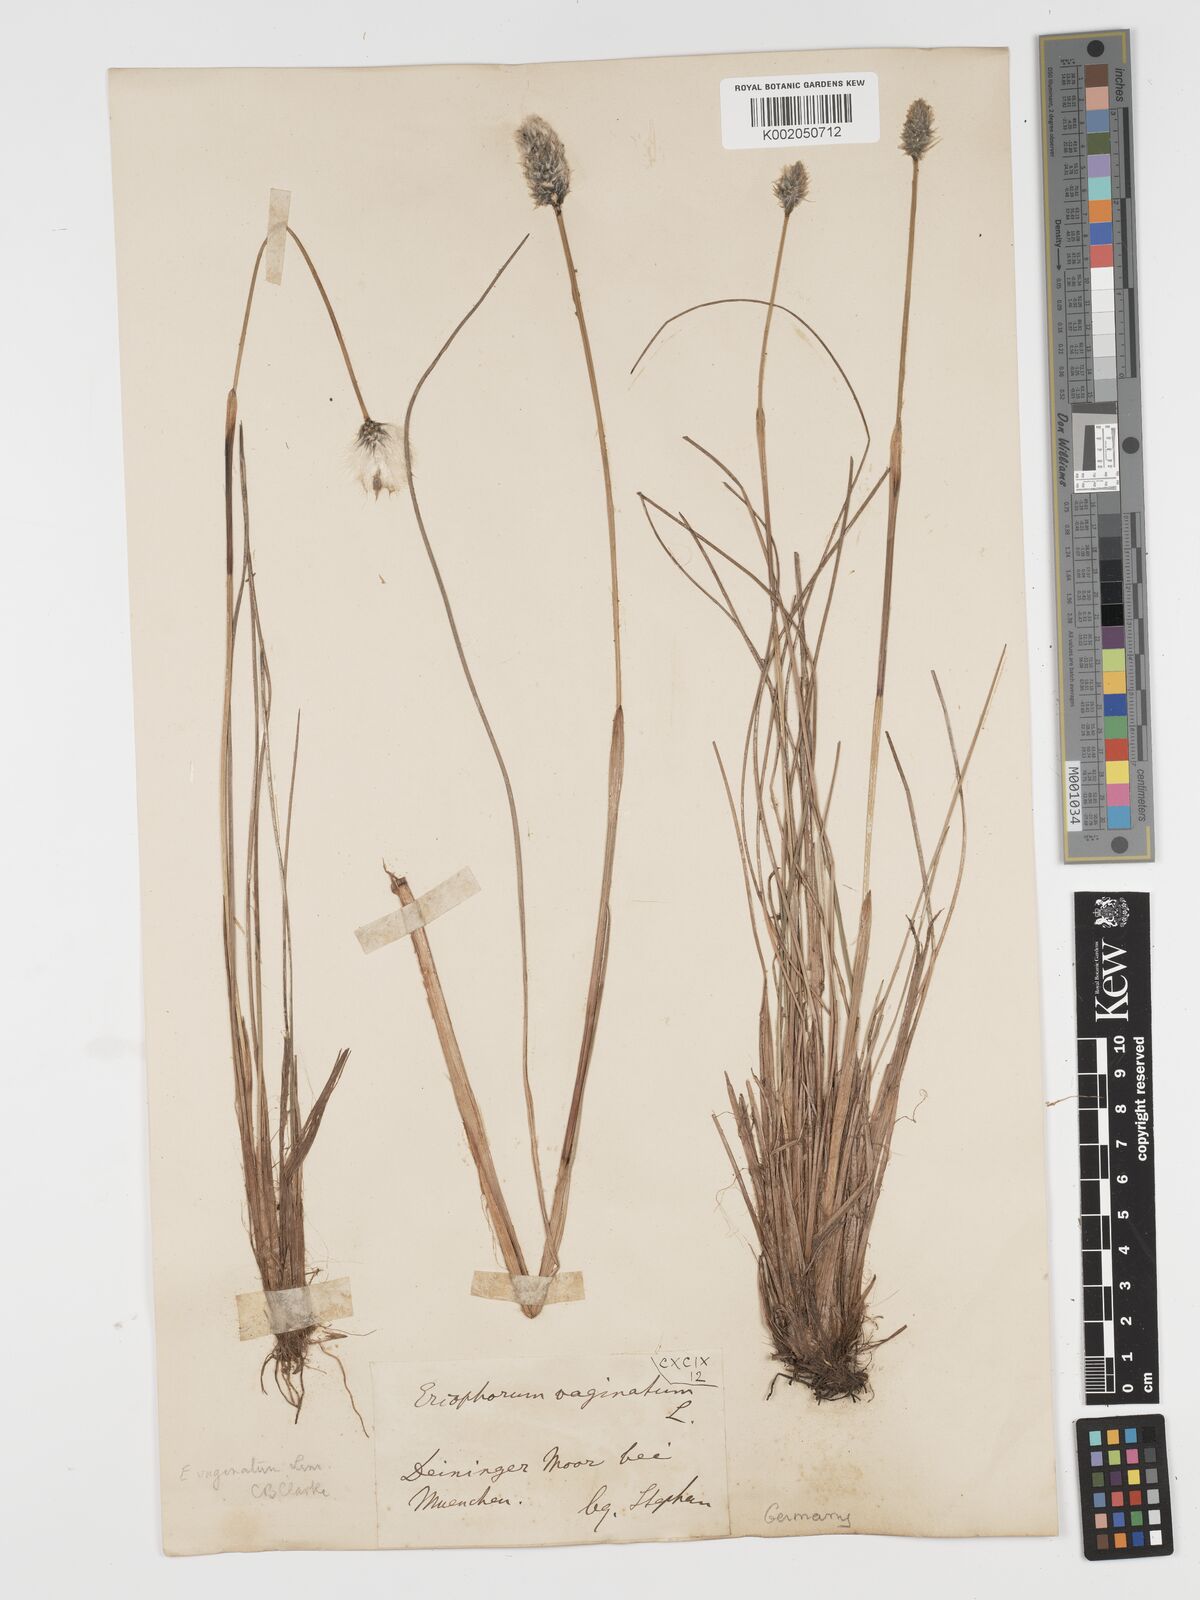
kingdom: Plantae
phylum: Tracheophyta
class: Liliopsida
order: Poales
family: Cyperaceae
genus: Eriophorum
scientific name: Eriophorum vaginatum
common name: Hare's-tail cottongrass
